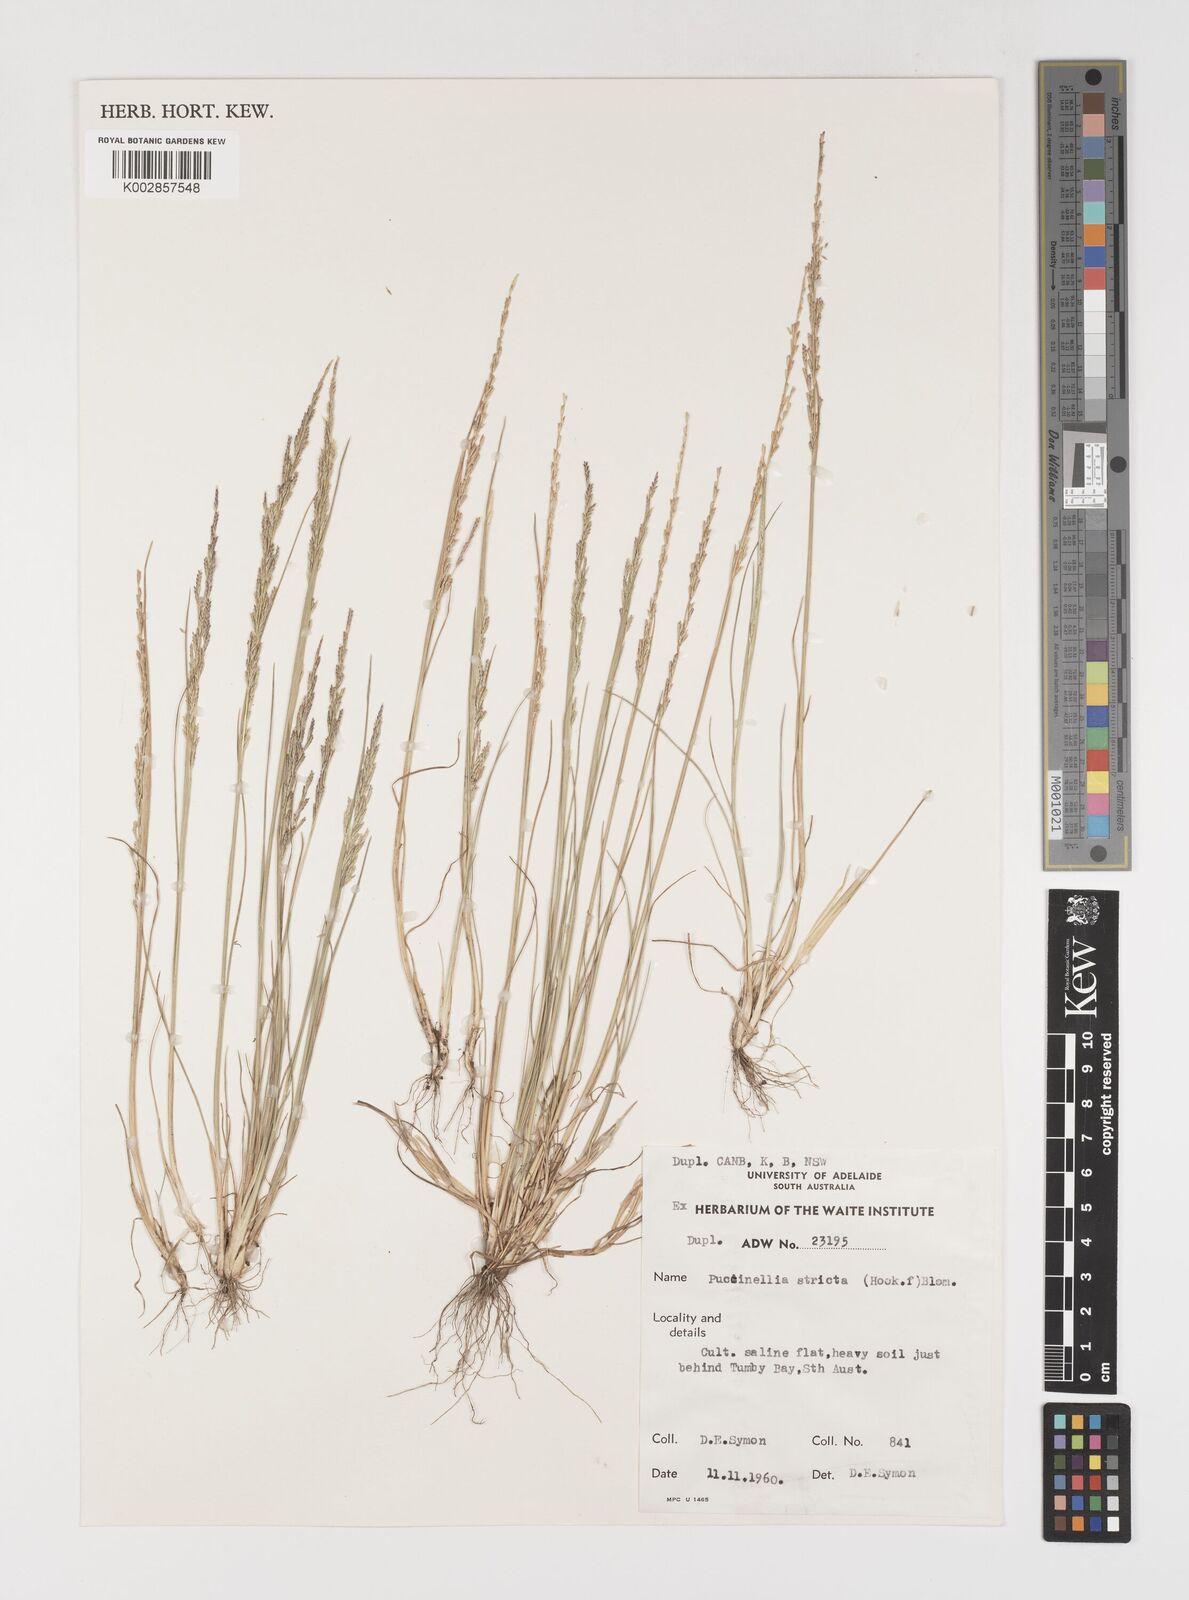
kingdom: Plantae
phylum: Tracheophyta
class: Liliopsida
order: Poales
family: Poaceae
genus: Puccinellia
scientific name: Puccinellia stricta
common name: Australian saltmarsh grass
